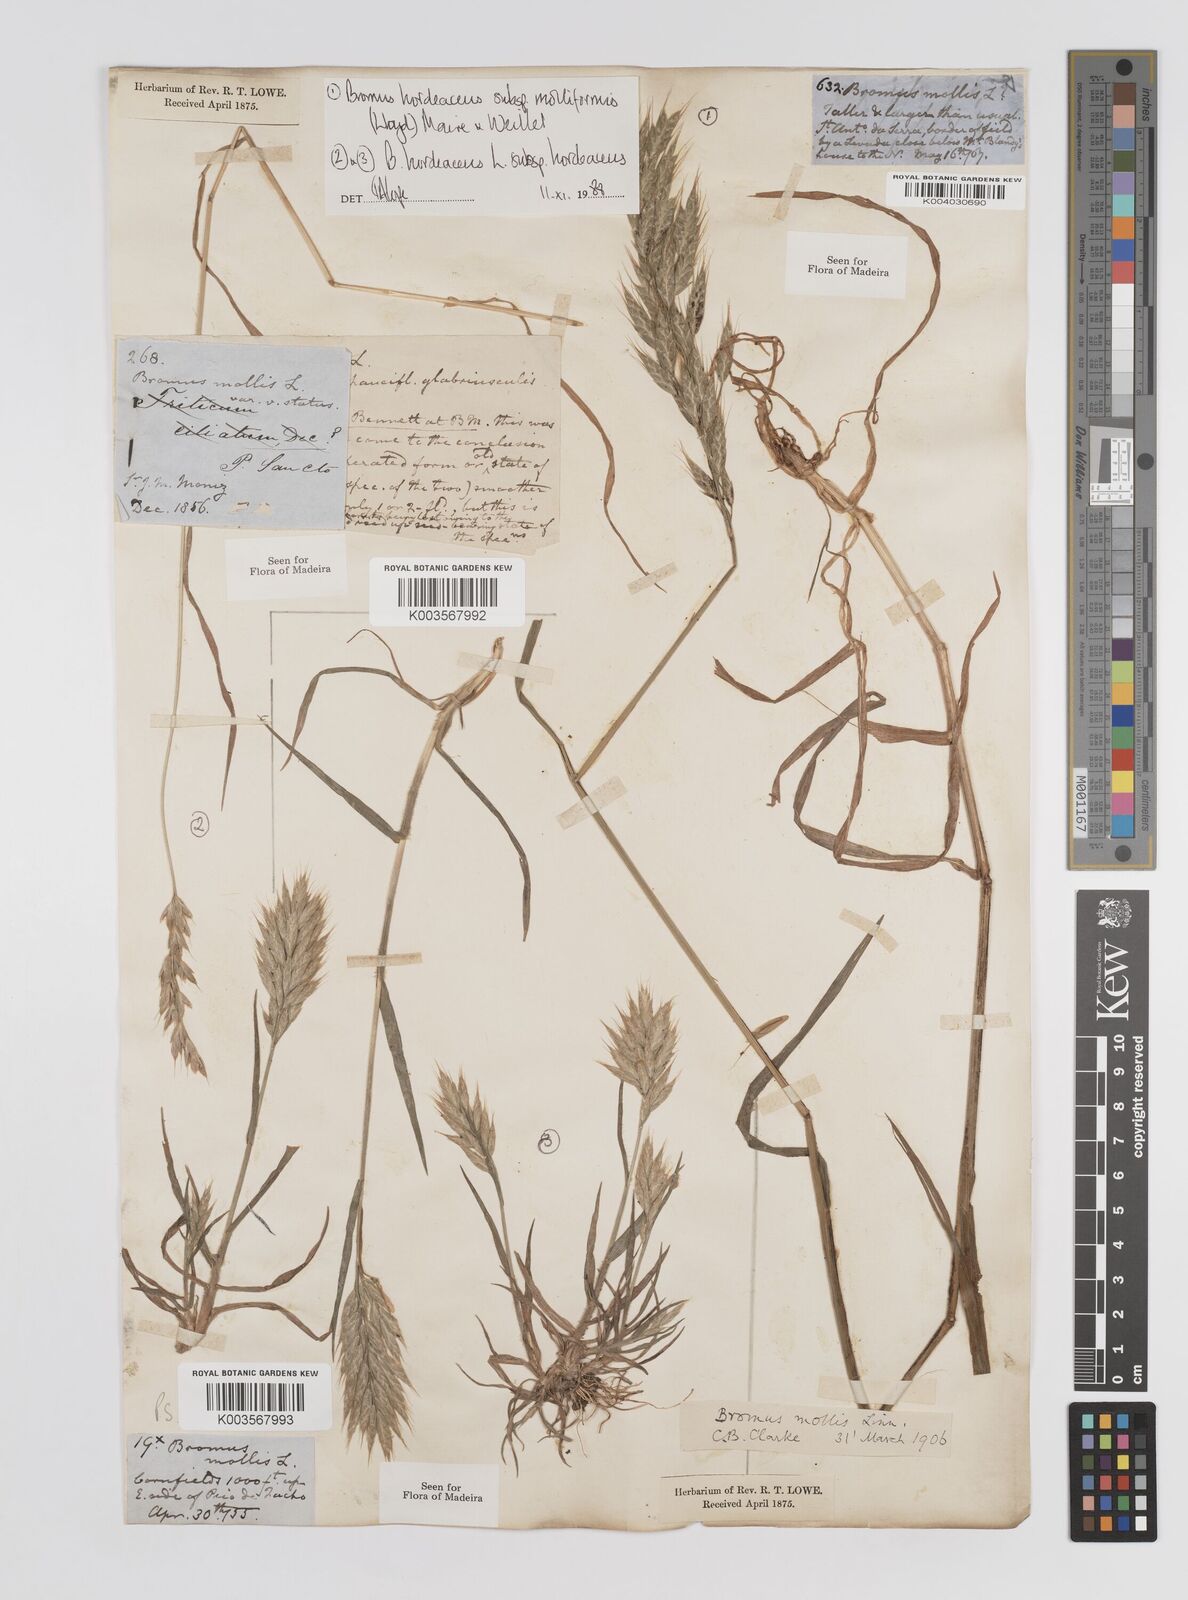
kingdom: Plantae
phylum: Tracheophyta
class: Liliopsida
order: Poales
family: Poaceae
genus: Bromus
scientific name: Bromus
